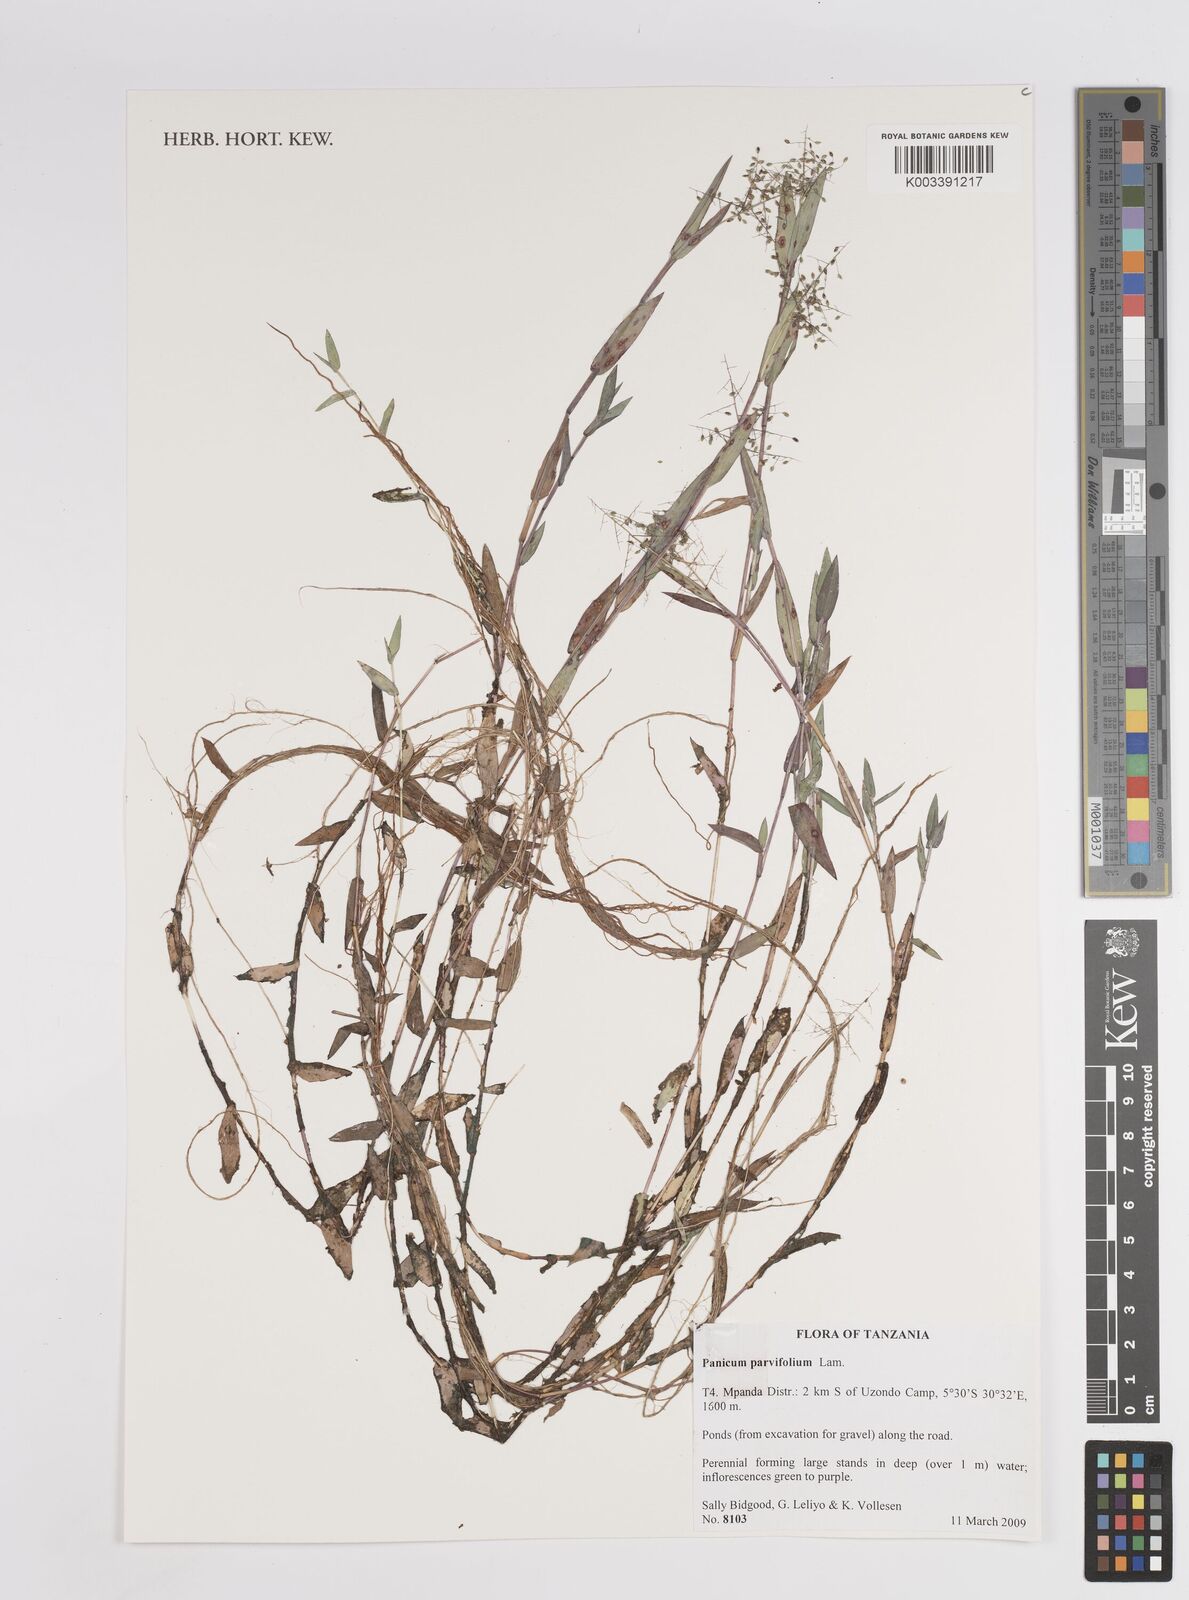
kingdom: Plantae
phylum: Tracheophyta
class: Liliopsida
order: Poales
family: Poaceae
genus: Trichanthecium
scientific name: Trichanthecium parvifolium
